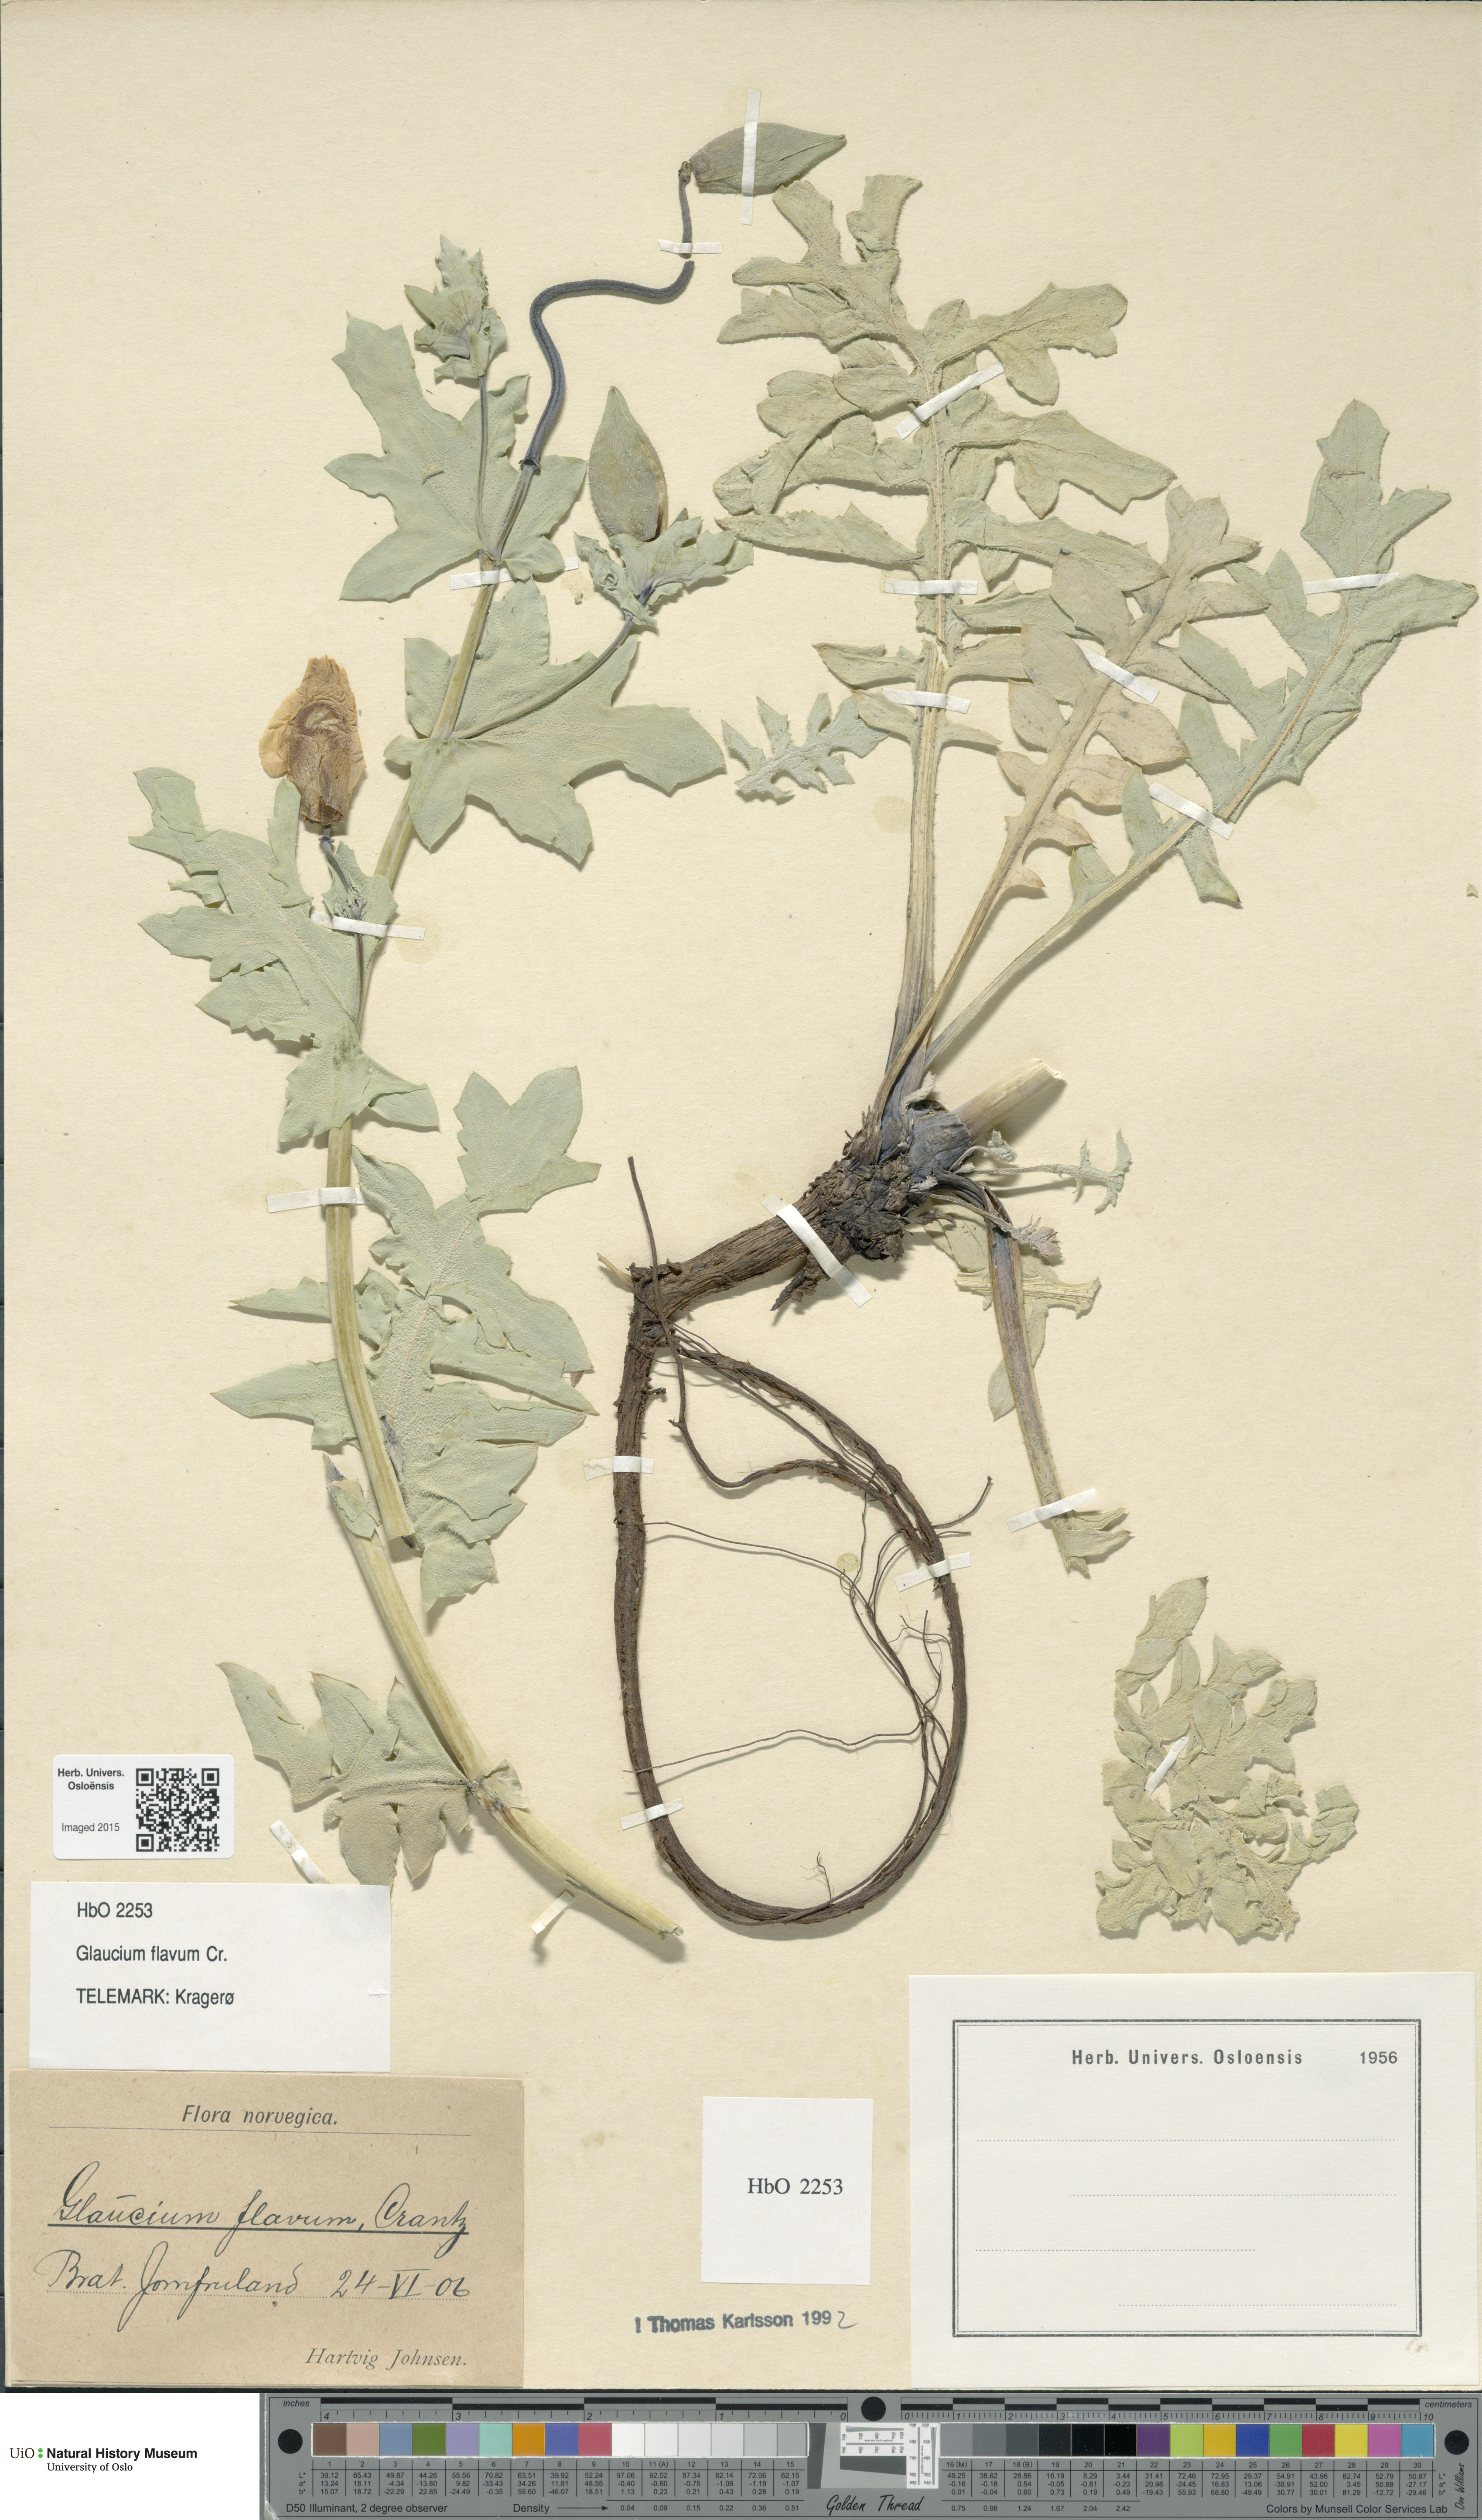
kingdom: Plantae
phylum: Tracheophyta
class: Magnoliopsida
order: Ranunculales
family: Papaveraceae
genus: Glaucium
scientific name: Glaucium flavum
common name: Yellow horned-poppy
